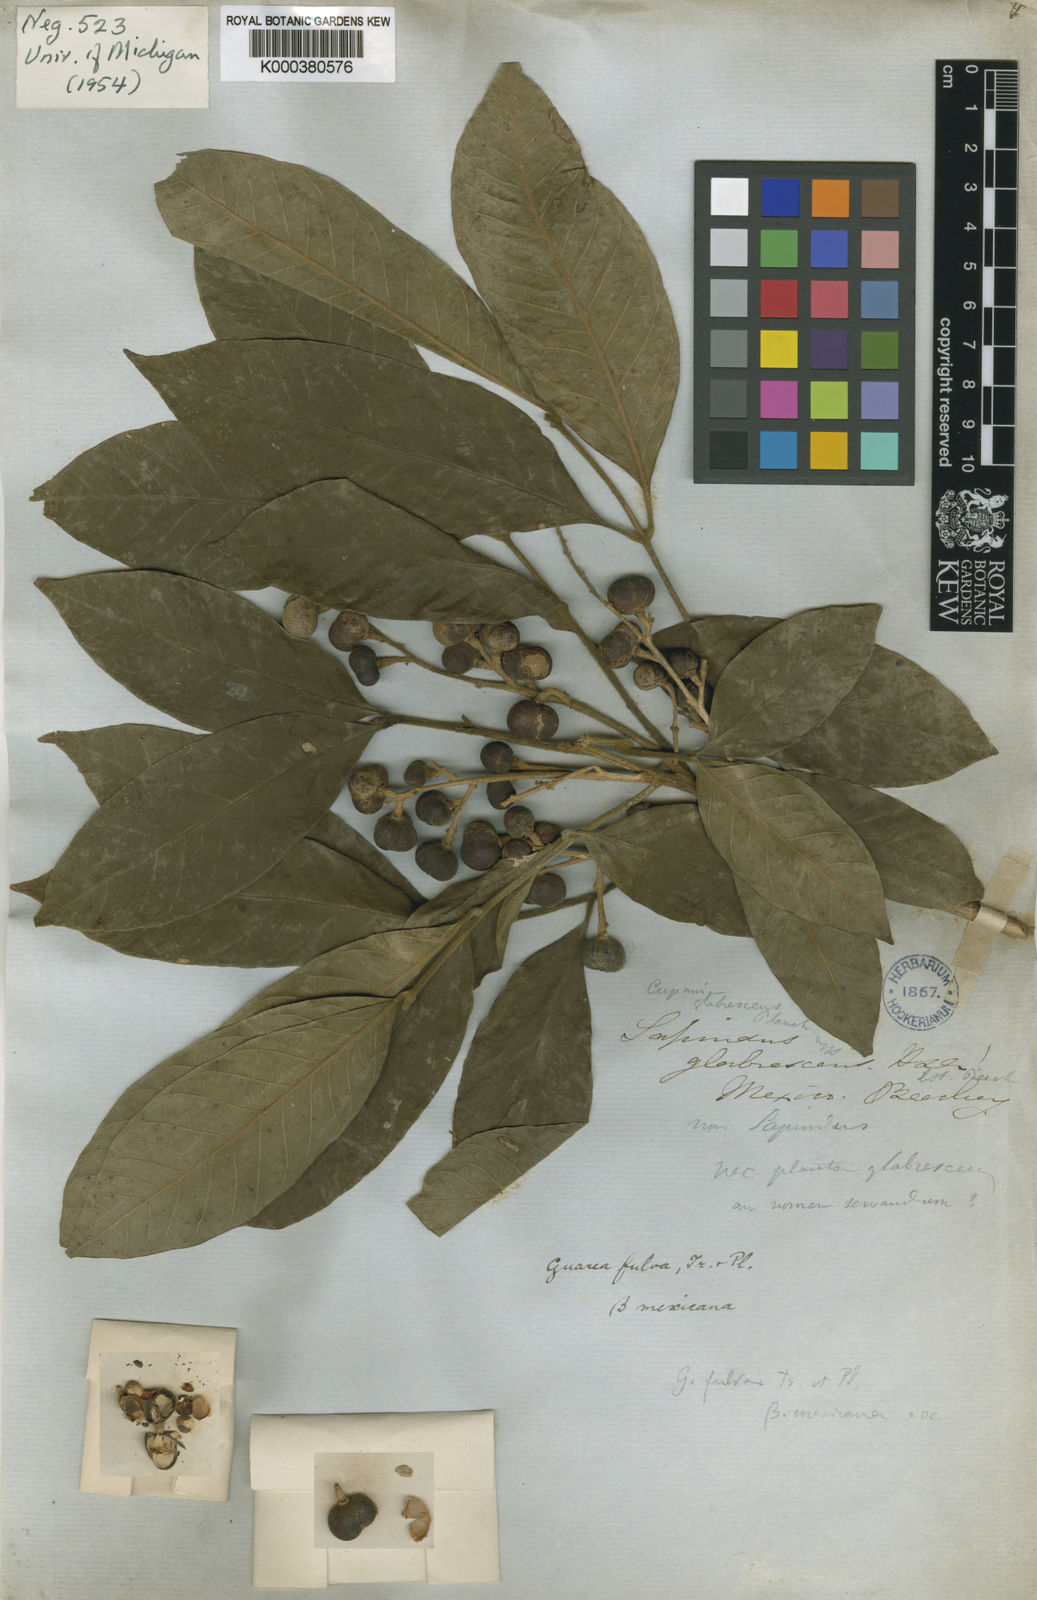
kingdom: Plantae
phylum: Tracheophyta
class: Magnoliopsida
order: Sapindales
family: Meliaceae
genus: Guarea
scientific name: Guarea glabra
